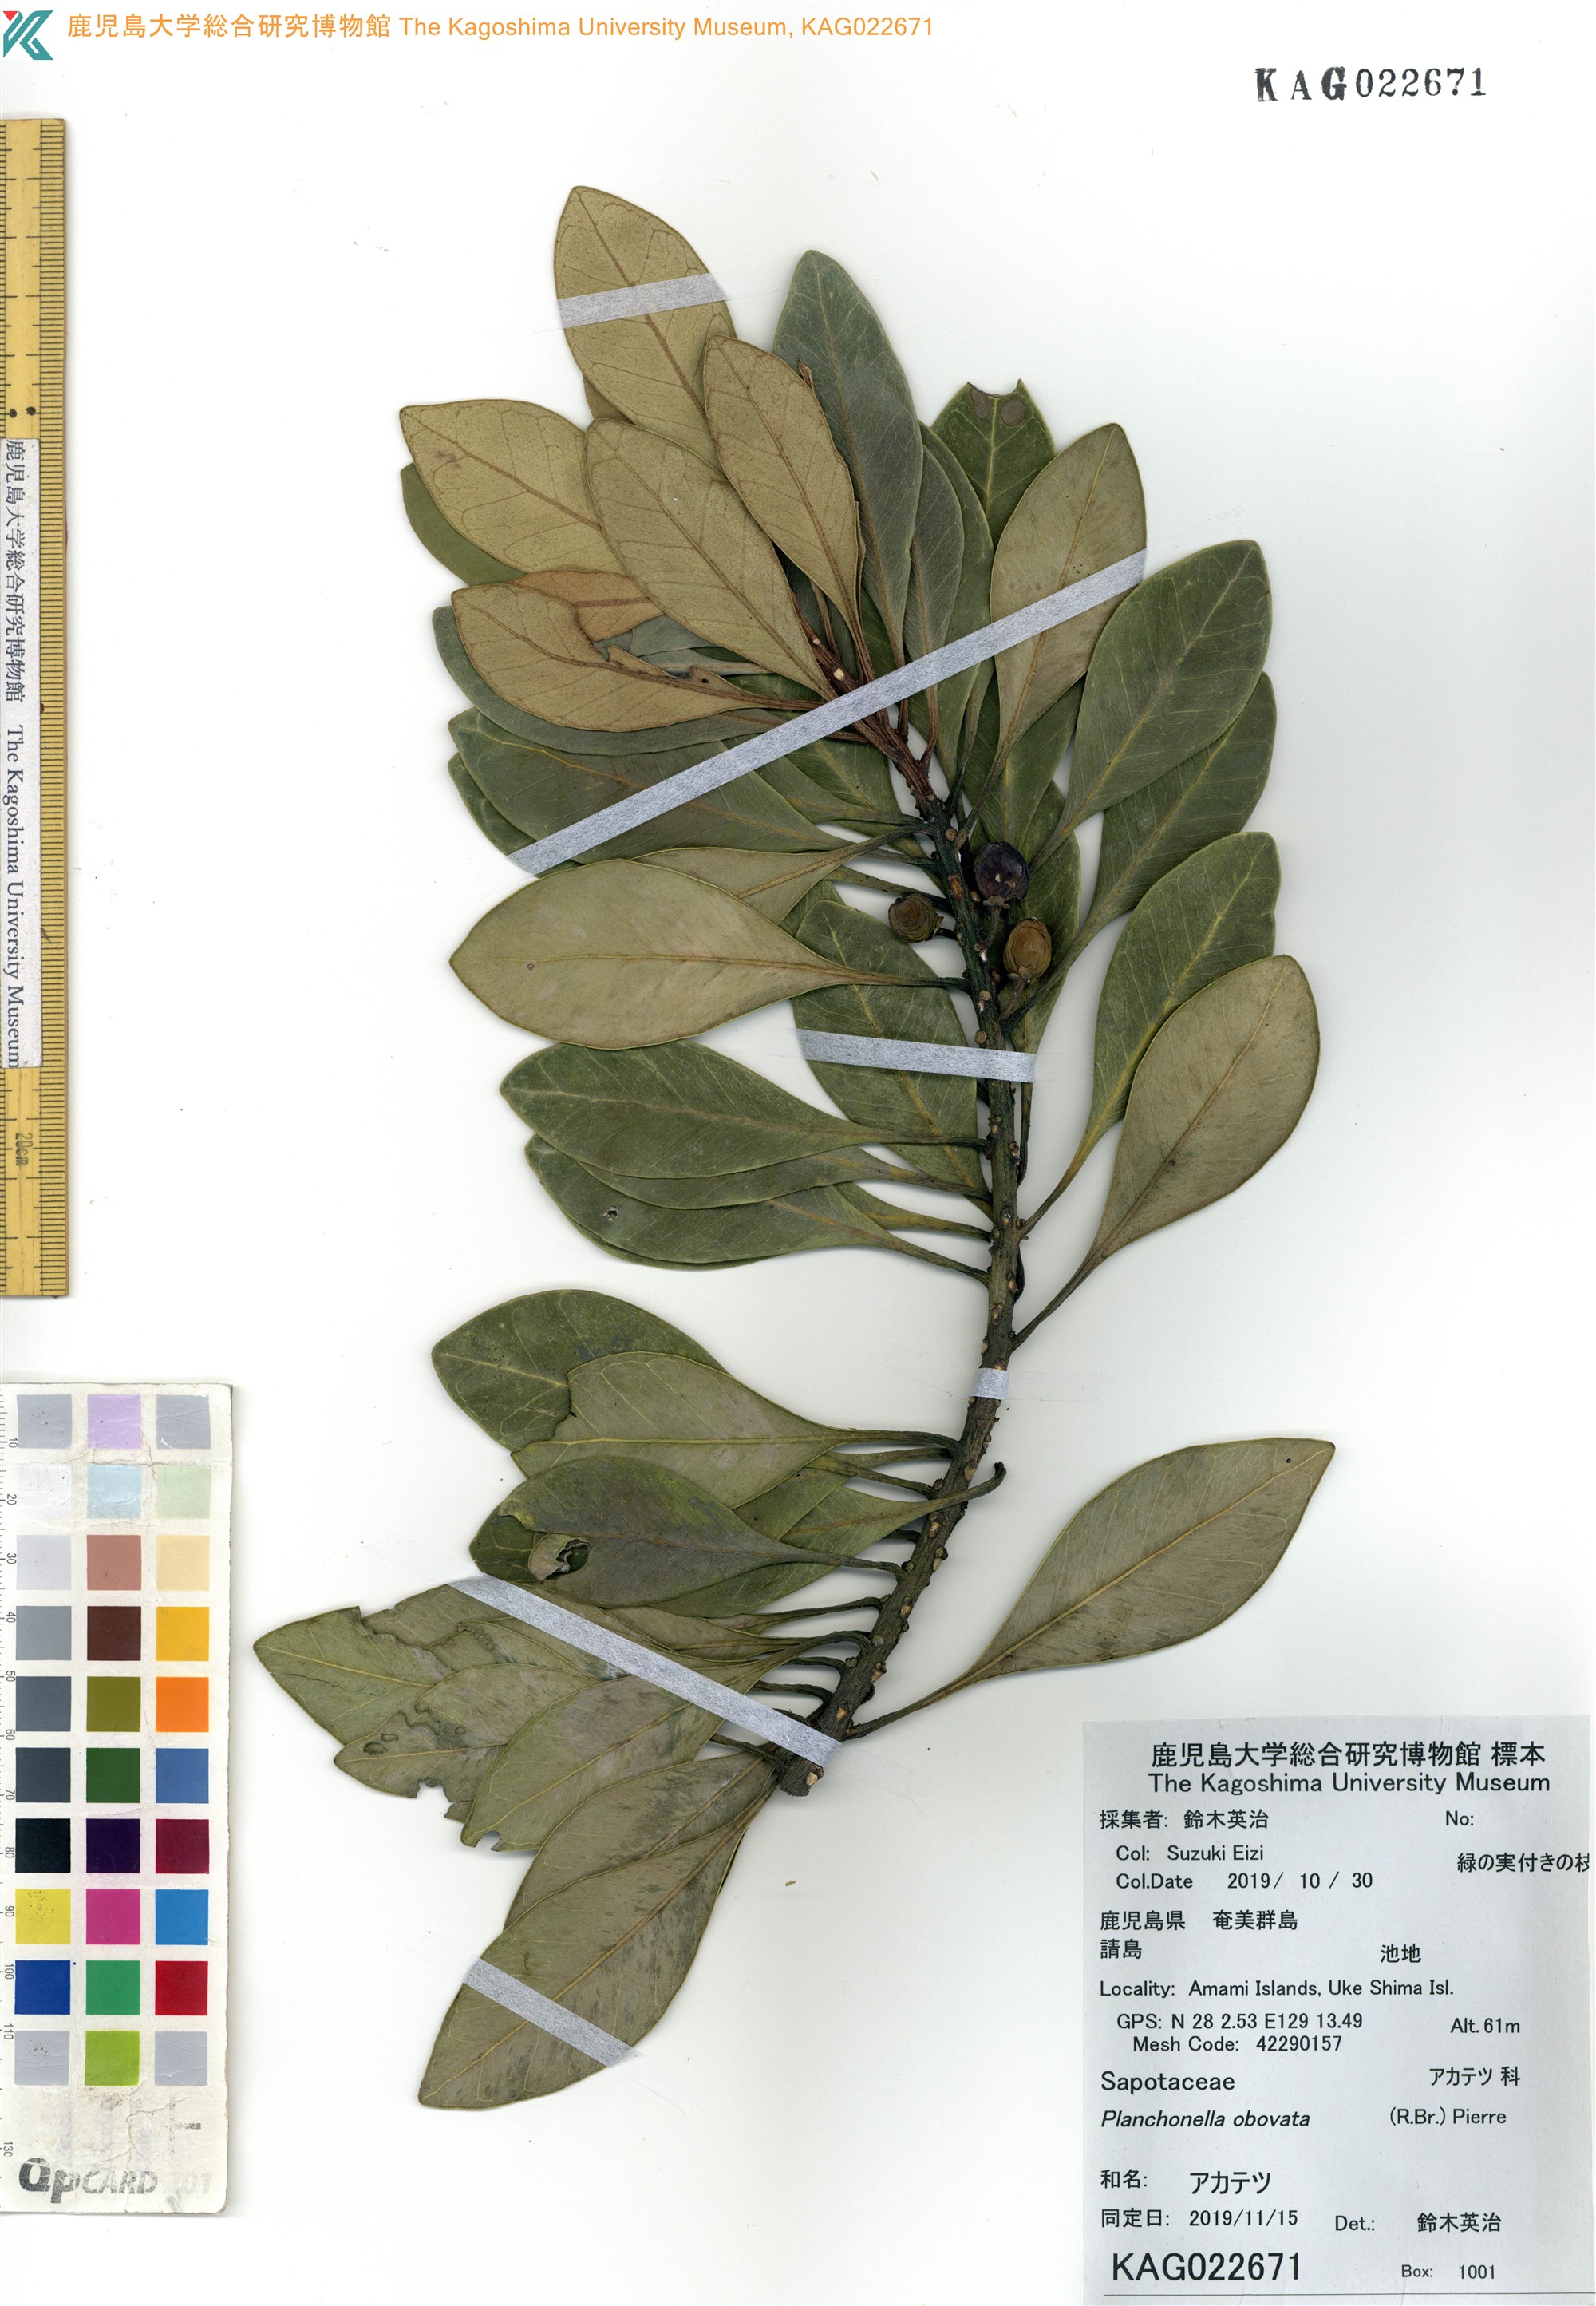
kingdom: Plantae
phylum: Tracheophyta
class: Magnoliopsida
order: Ericales
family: Sapotaceae
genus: Planchonella
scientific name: Planchonella obovata
